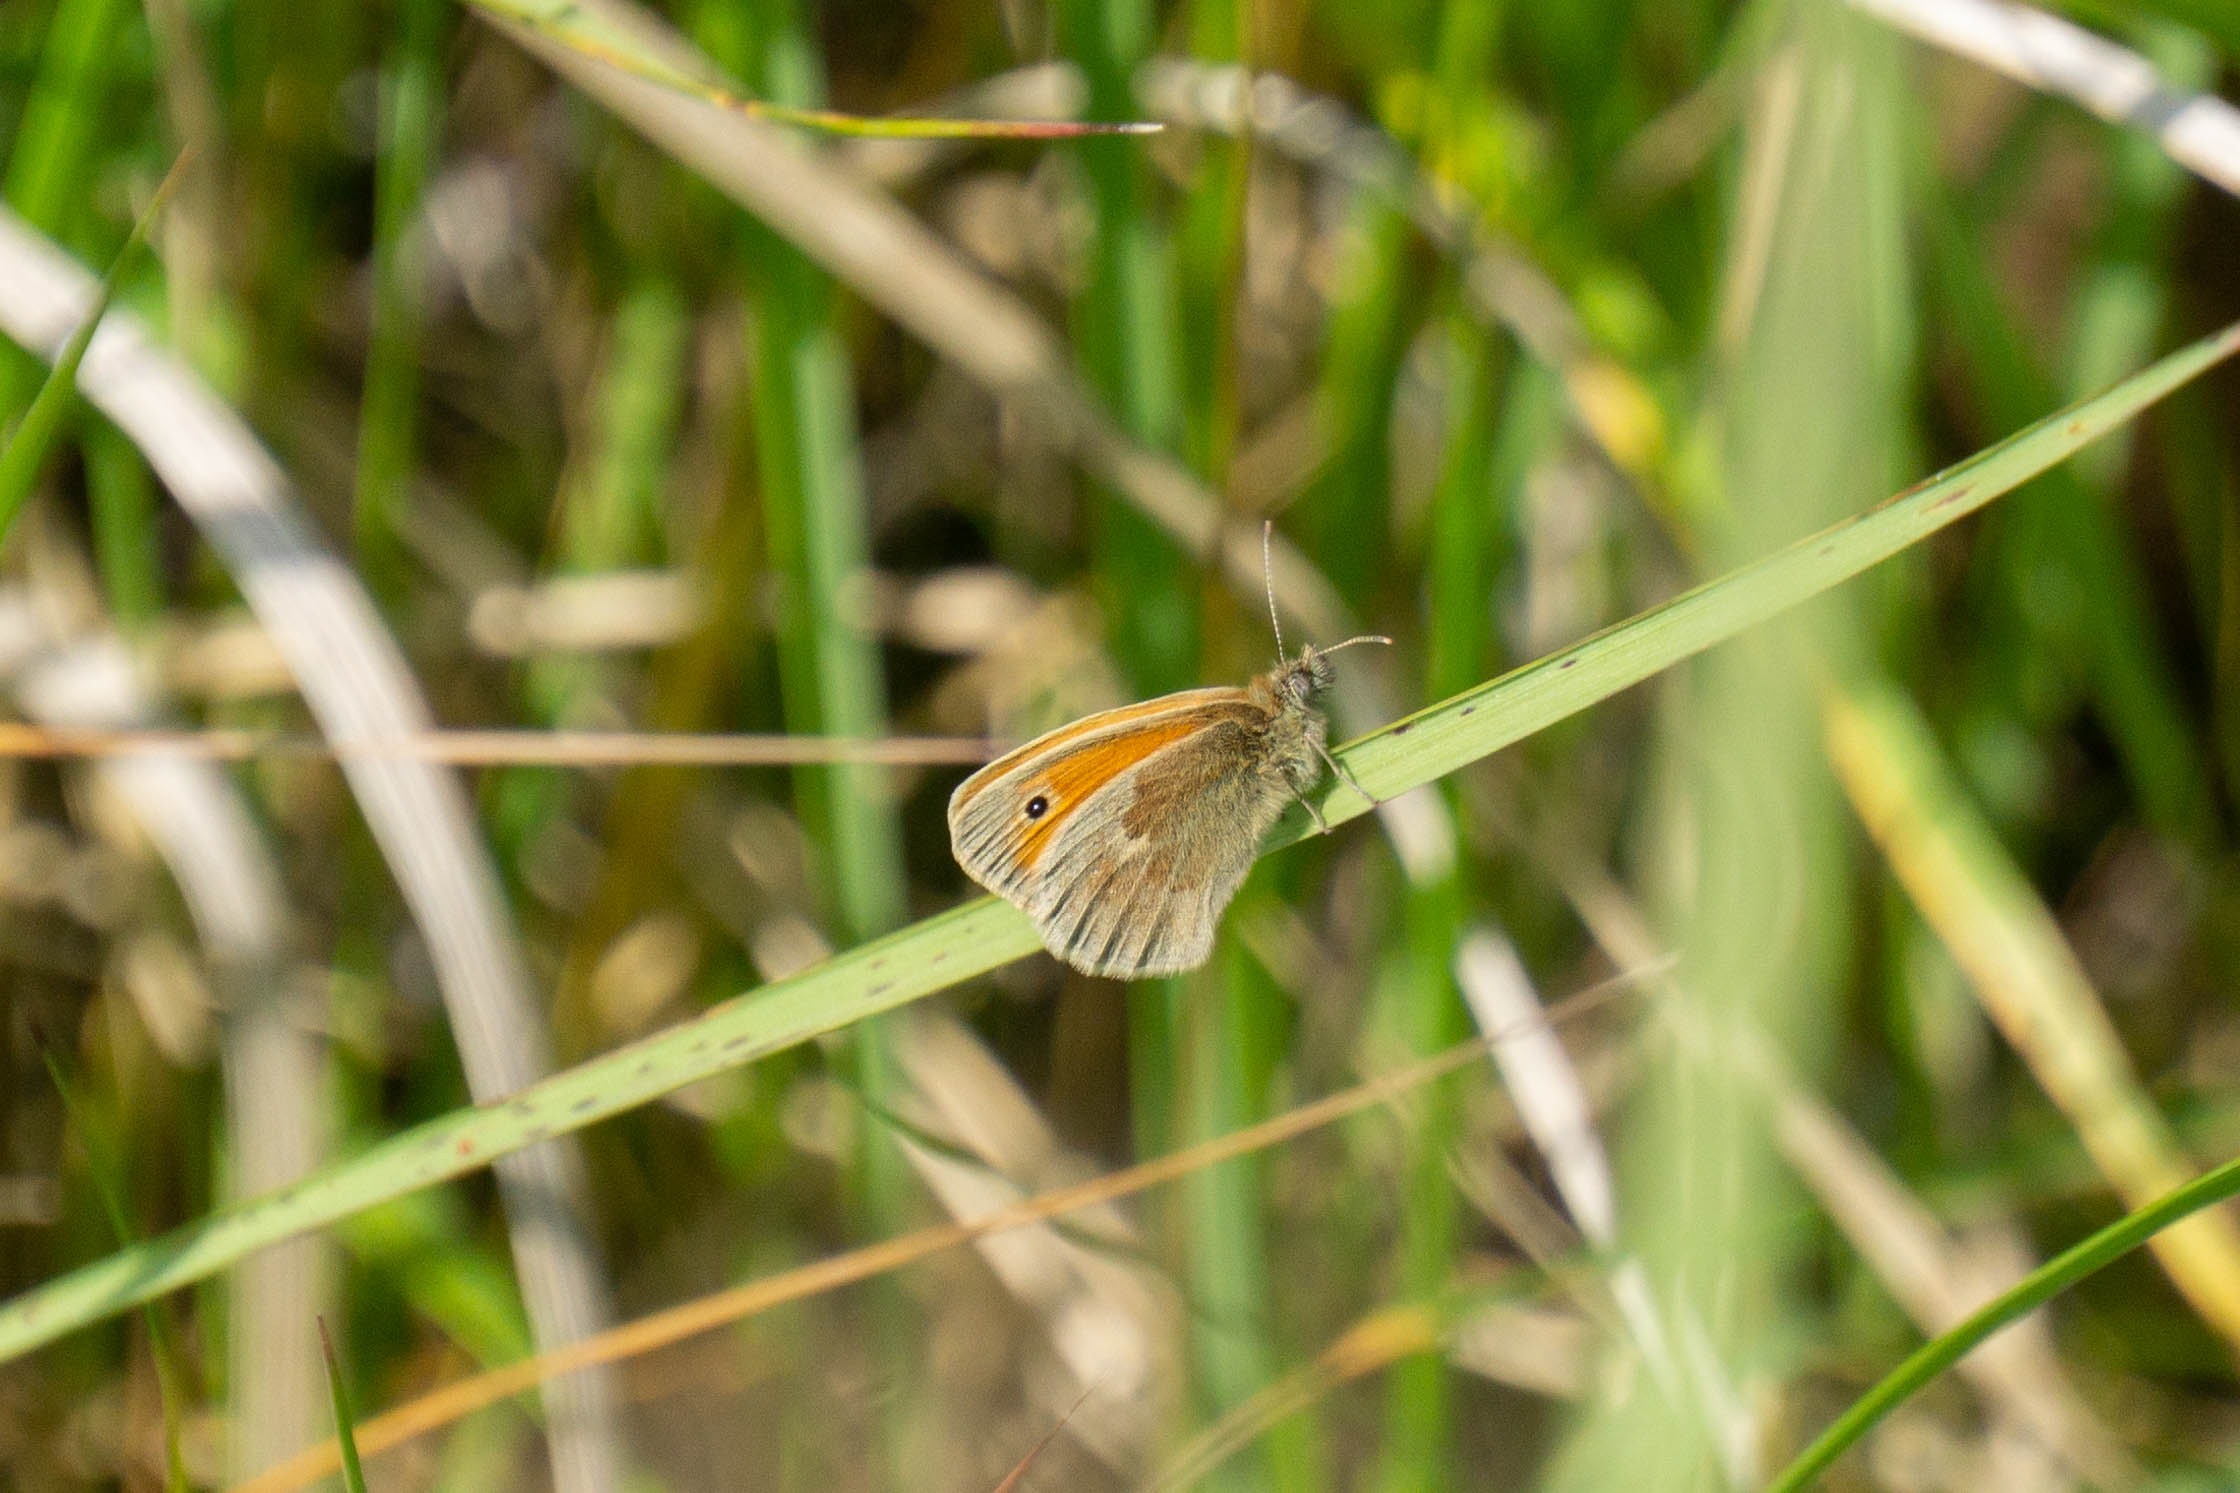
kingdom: Animalia
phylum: Arthropoda
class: Insecta
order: Lepidoptera
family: Nymphalidae
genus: Coenonympha
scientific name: Coenonympha pamphilus
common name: Okkergul randøje
